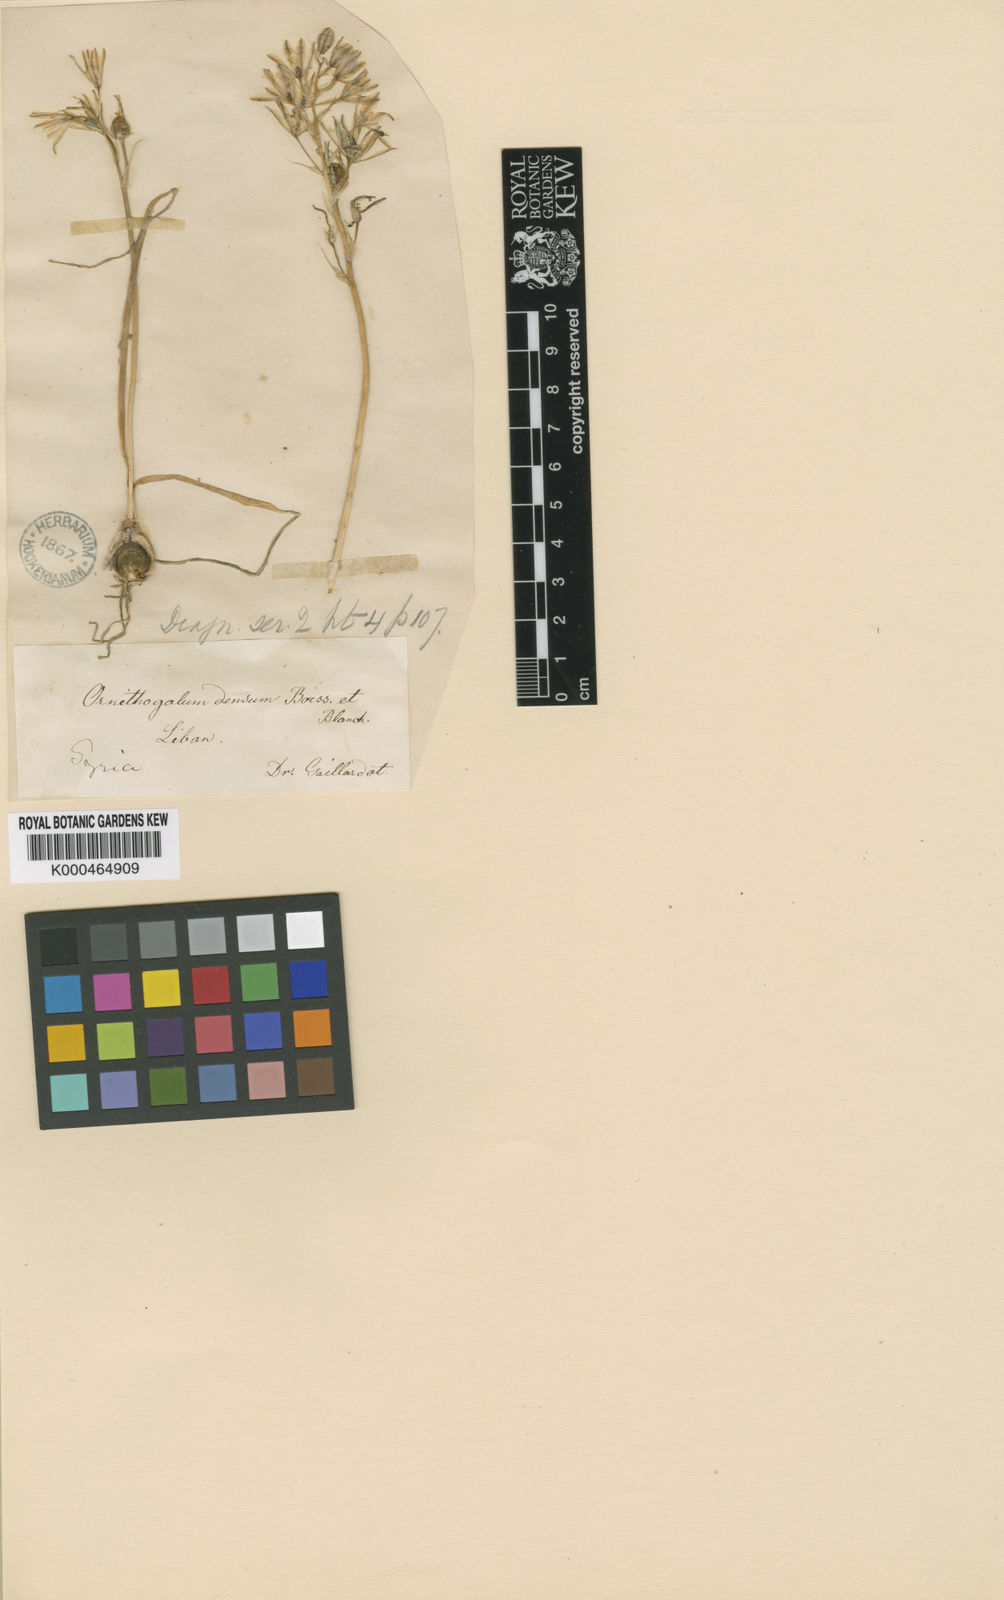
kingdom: Plantae
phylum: Tracheophyta
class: Liliopsida
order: Asparagales
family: Asparagaceae
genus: Ornithogalum
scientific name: Ornithogalum narbonense
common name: Bath-asparagus
